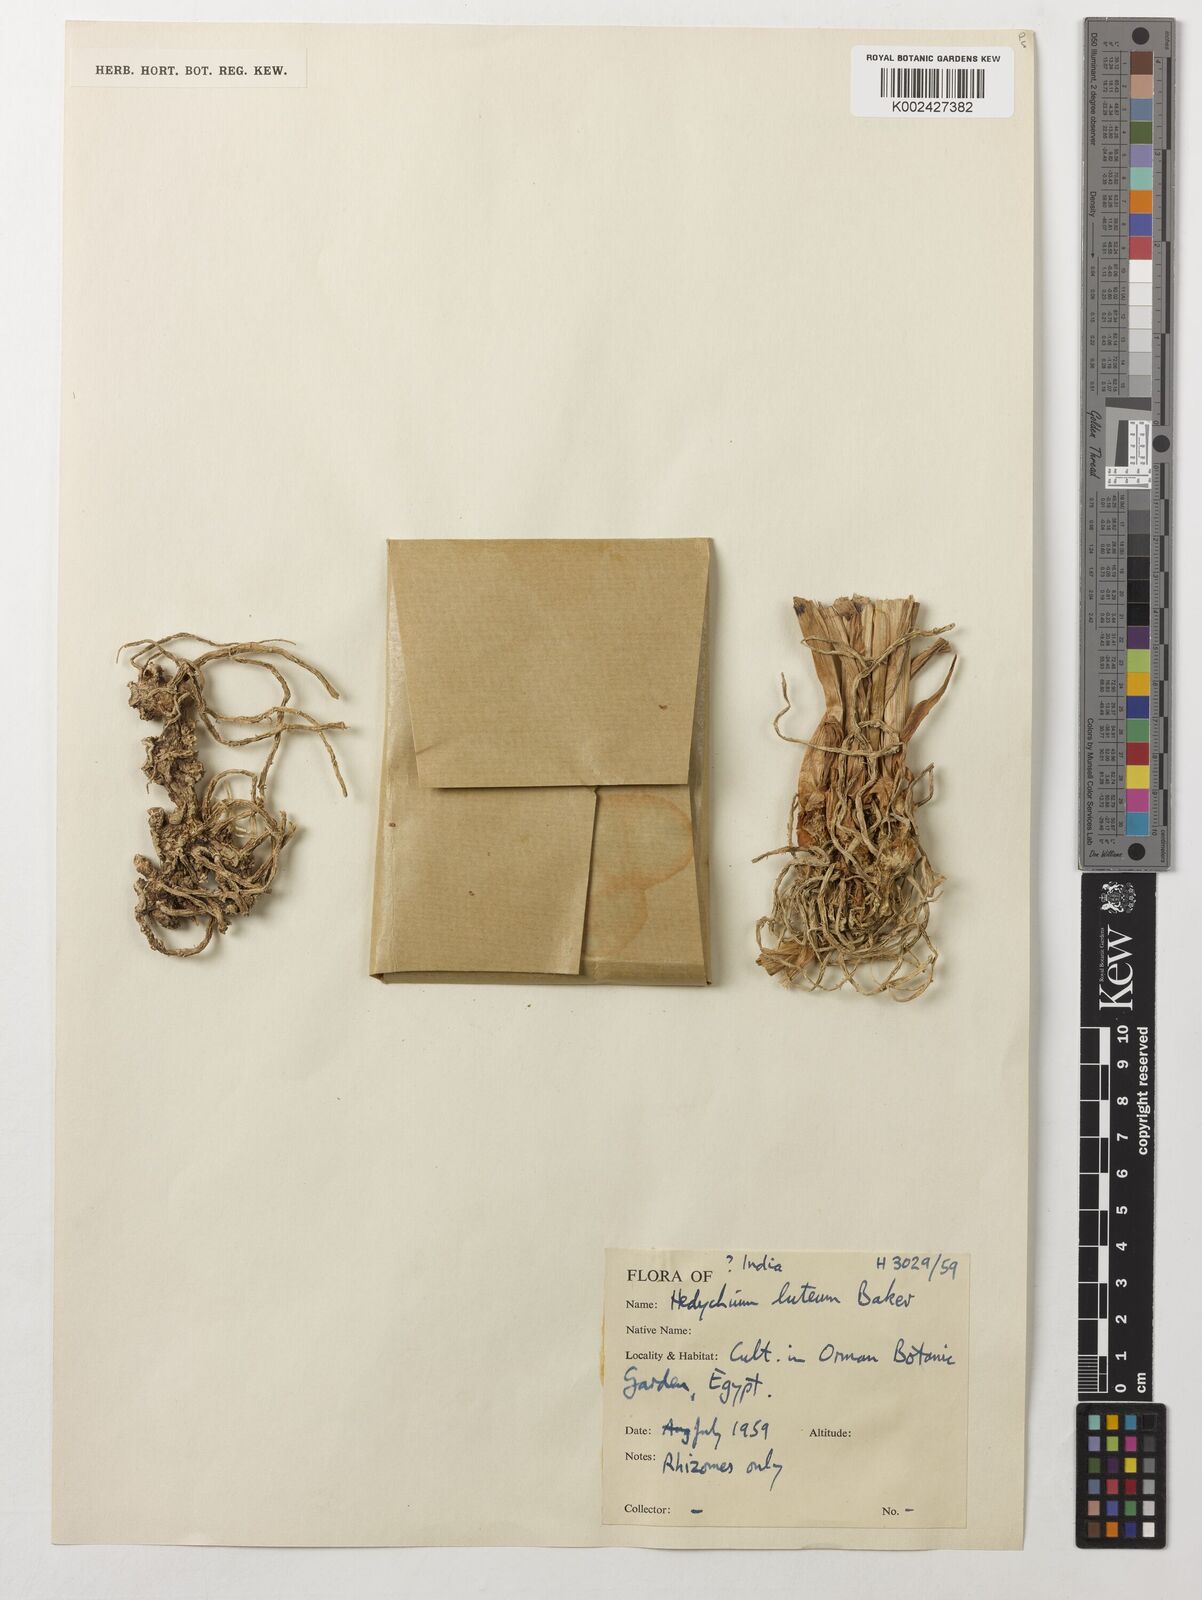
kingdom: Plantae
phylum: Tracheophyta
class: Liliopsida
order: Zingiberales
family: Zingiberaceae
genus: Hedychium
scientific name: Hedychium luteum
